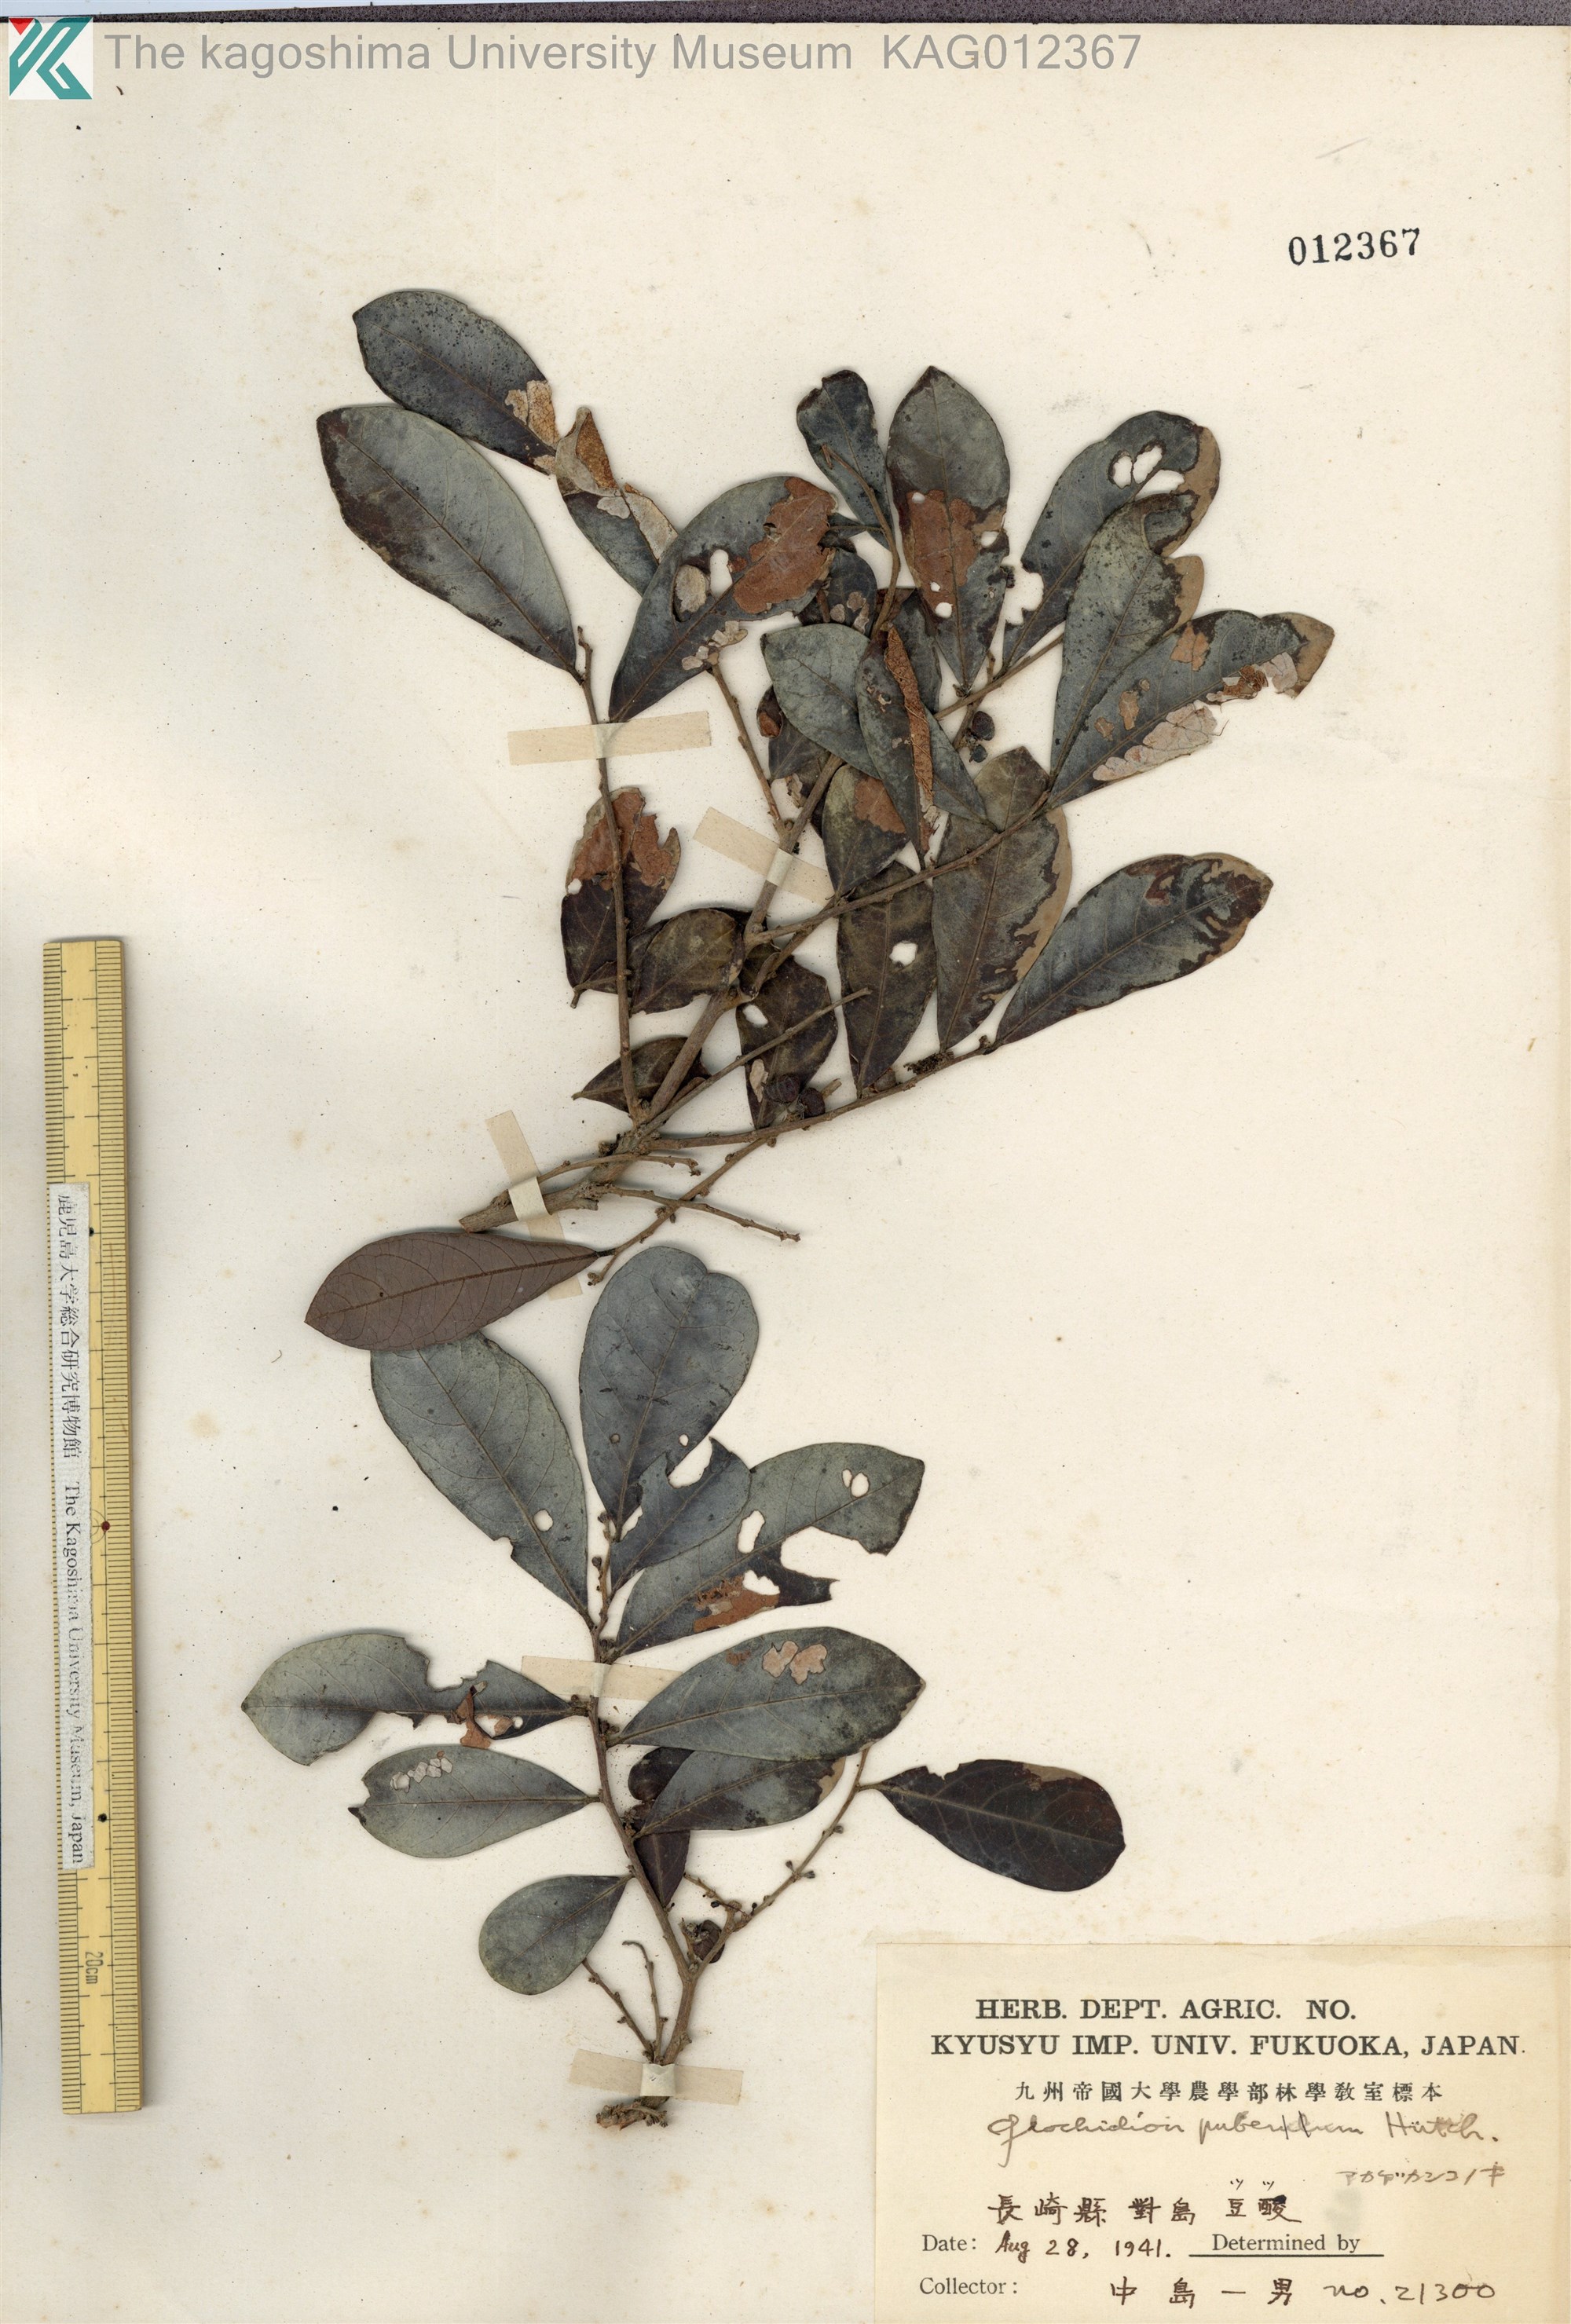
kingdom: Plantae
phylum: Tracheophyta
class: Magnoliopsida
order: Malpighiales
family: Phyllanthaceae
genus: Glochidion
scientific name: Glochidion puberum
